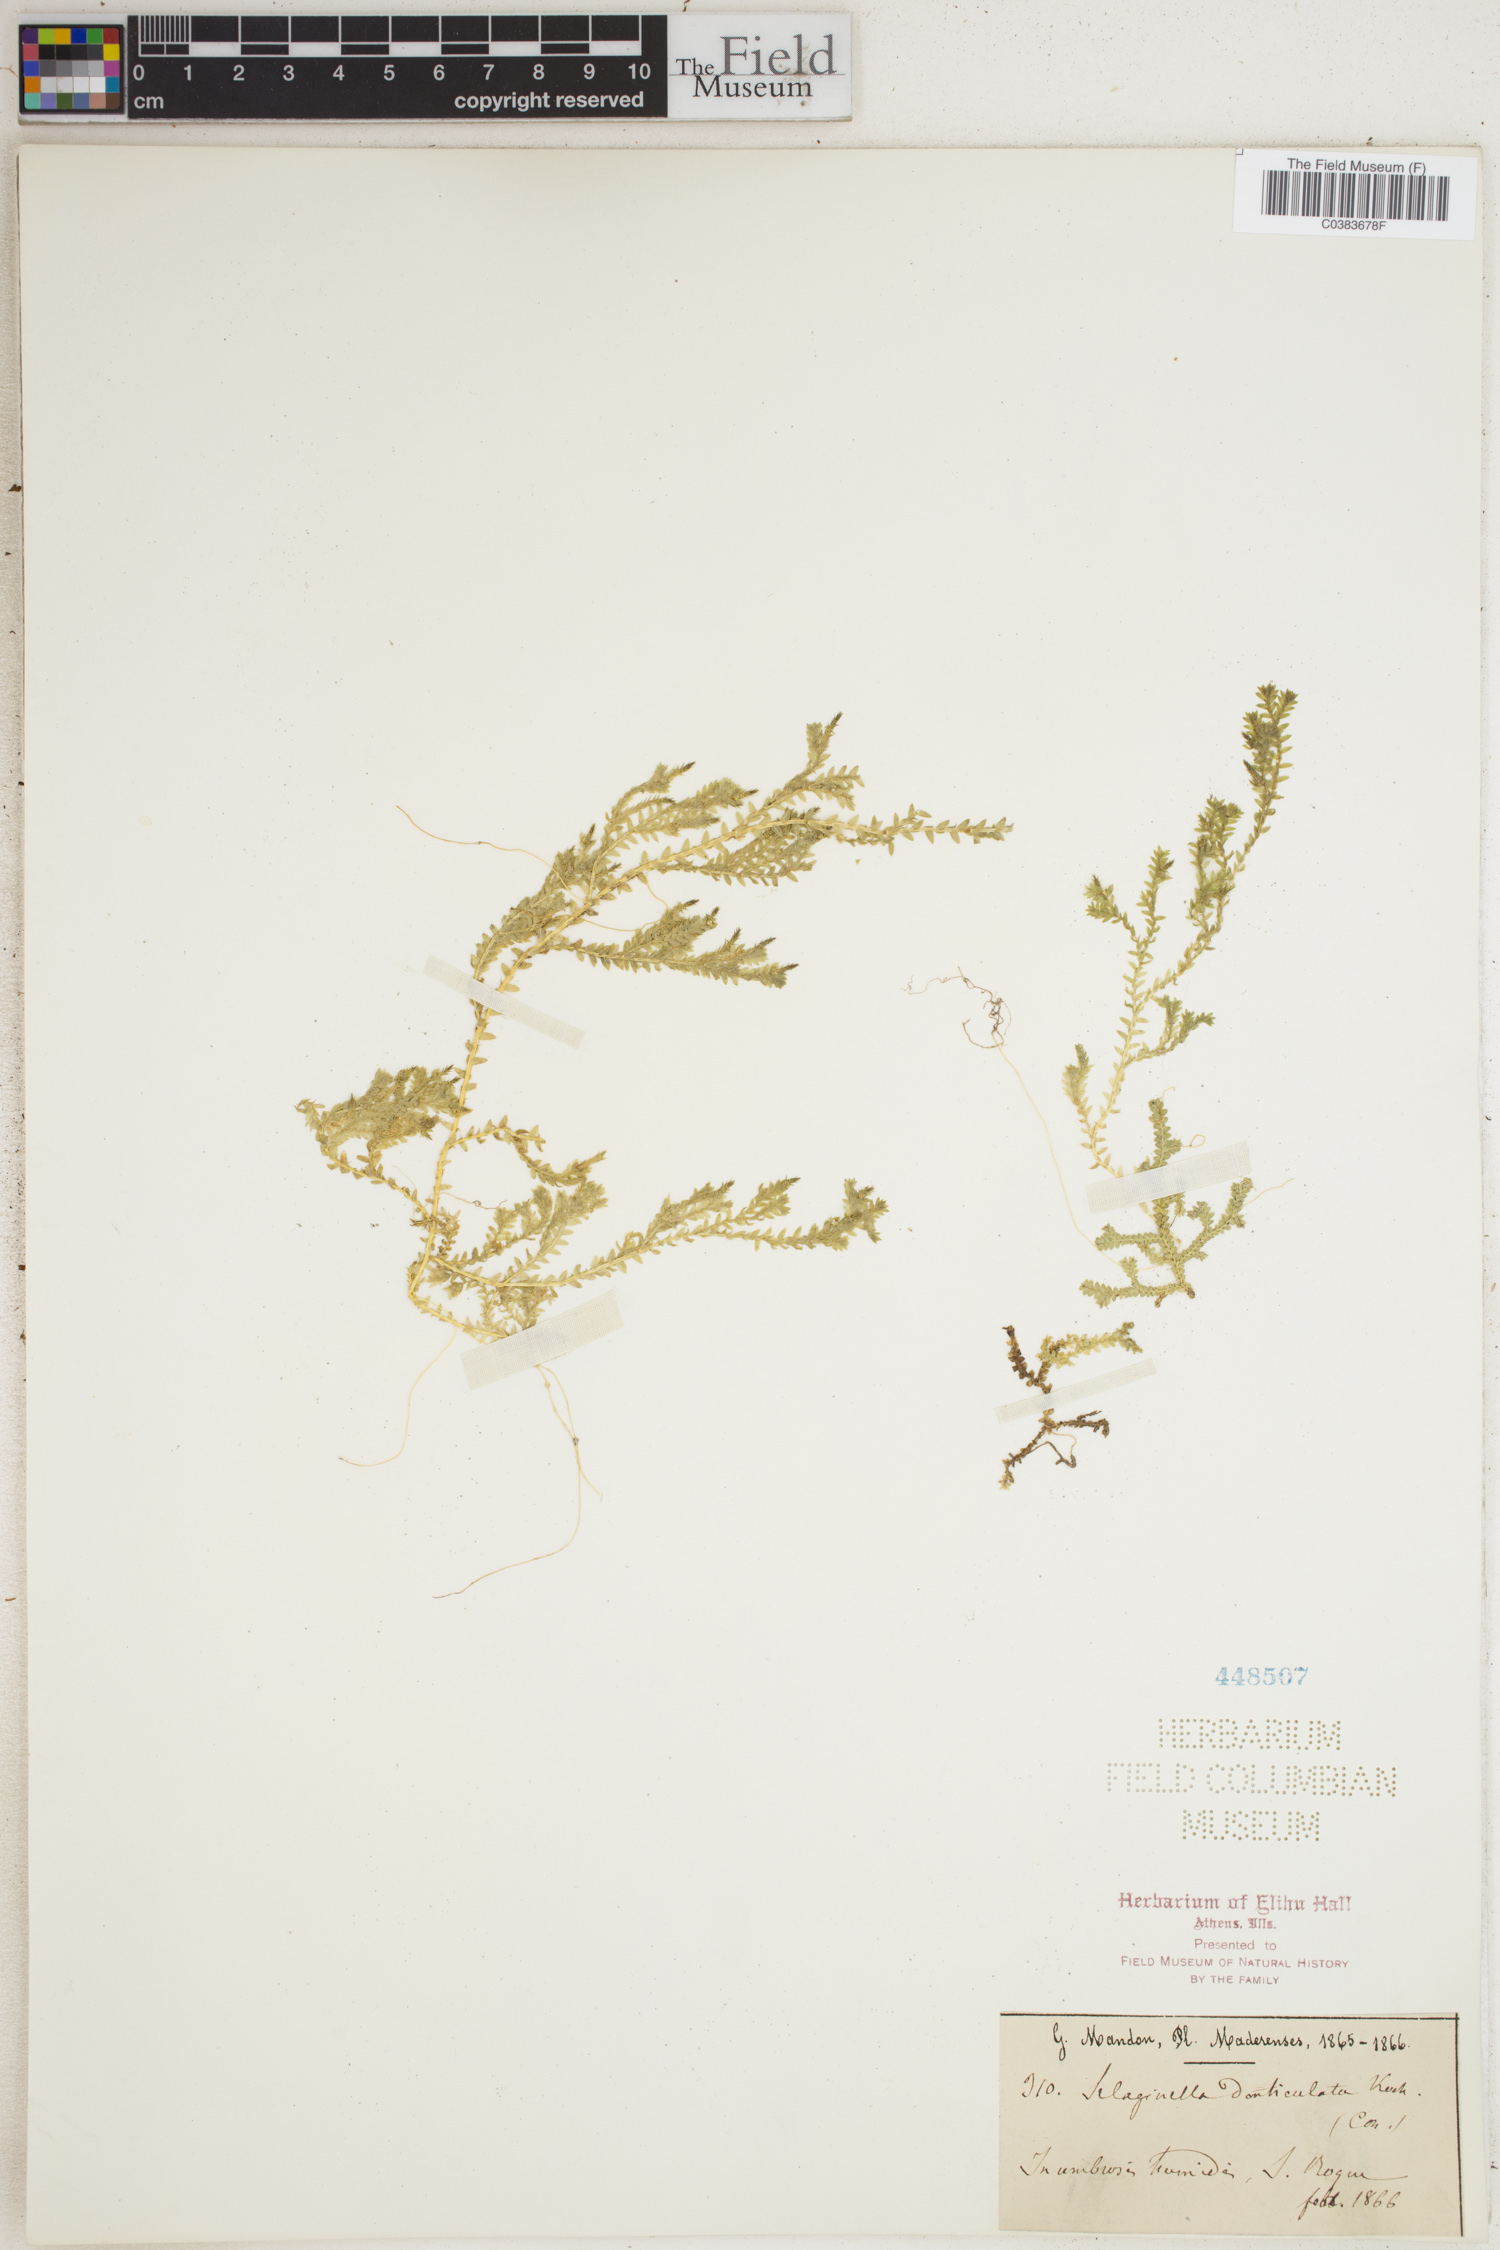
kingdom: Plantae
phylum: Tracheophyta
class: Lycopodiopsida
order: Selaginellales
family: Selaginellaceae
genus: Selaginella
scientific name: Selaginella denticulata
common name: Toothed-leaved clubmoss
